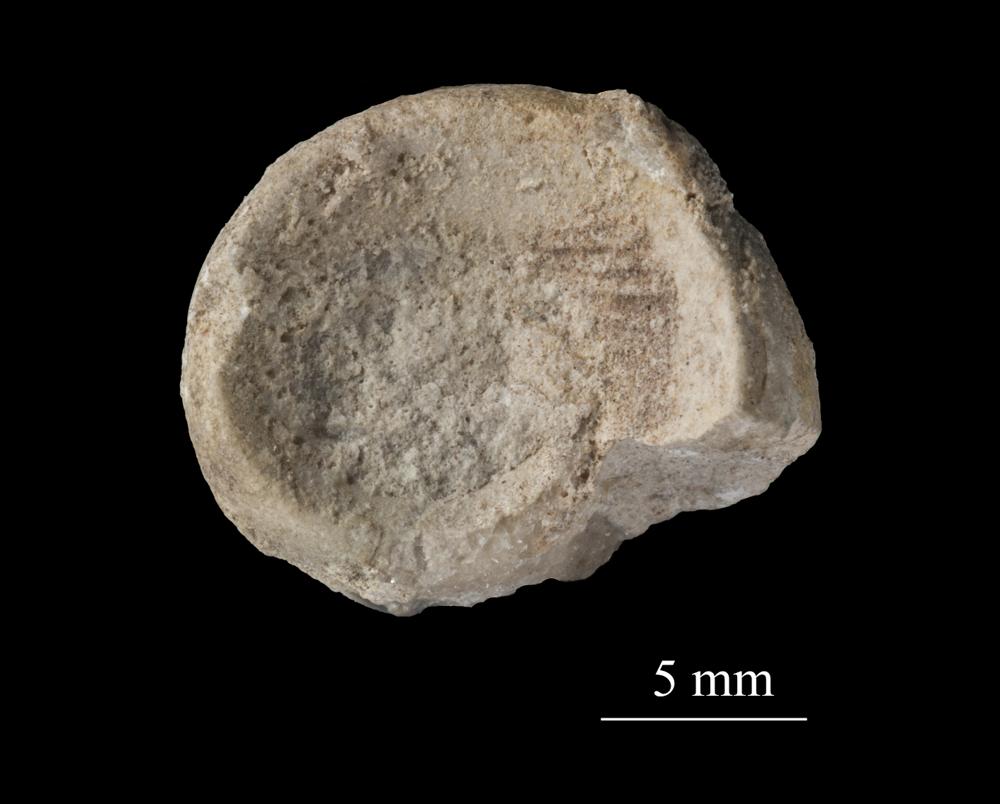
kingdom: Animalia
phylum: Mollusca
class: Gastropoda
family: Euomphalidae
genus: Euomphalus
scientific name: Euomphalus
